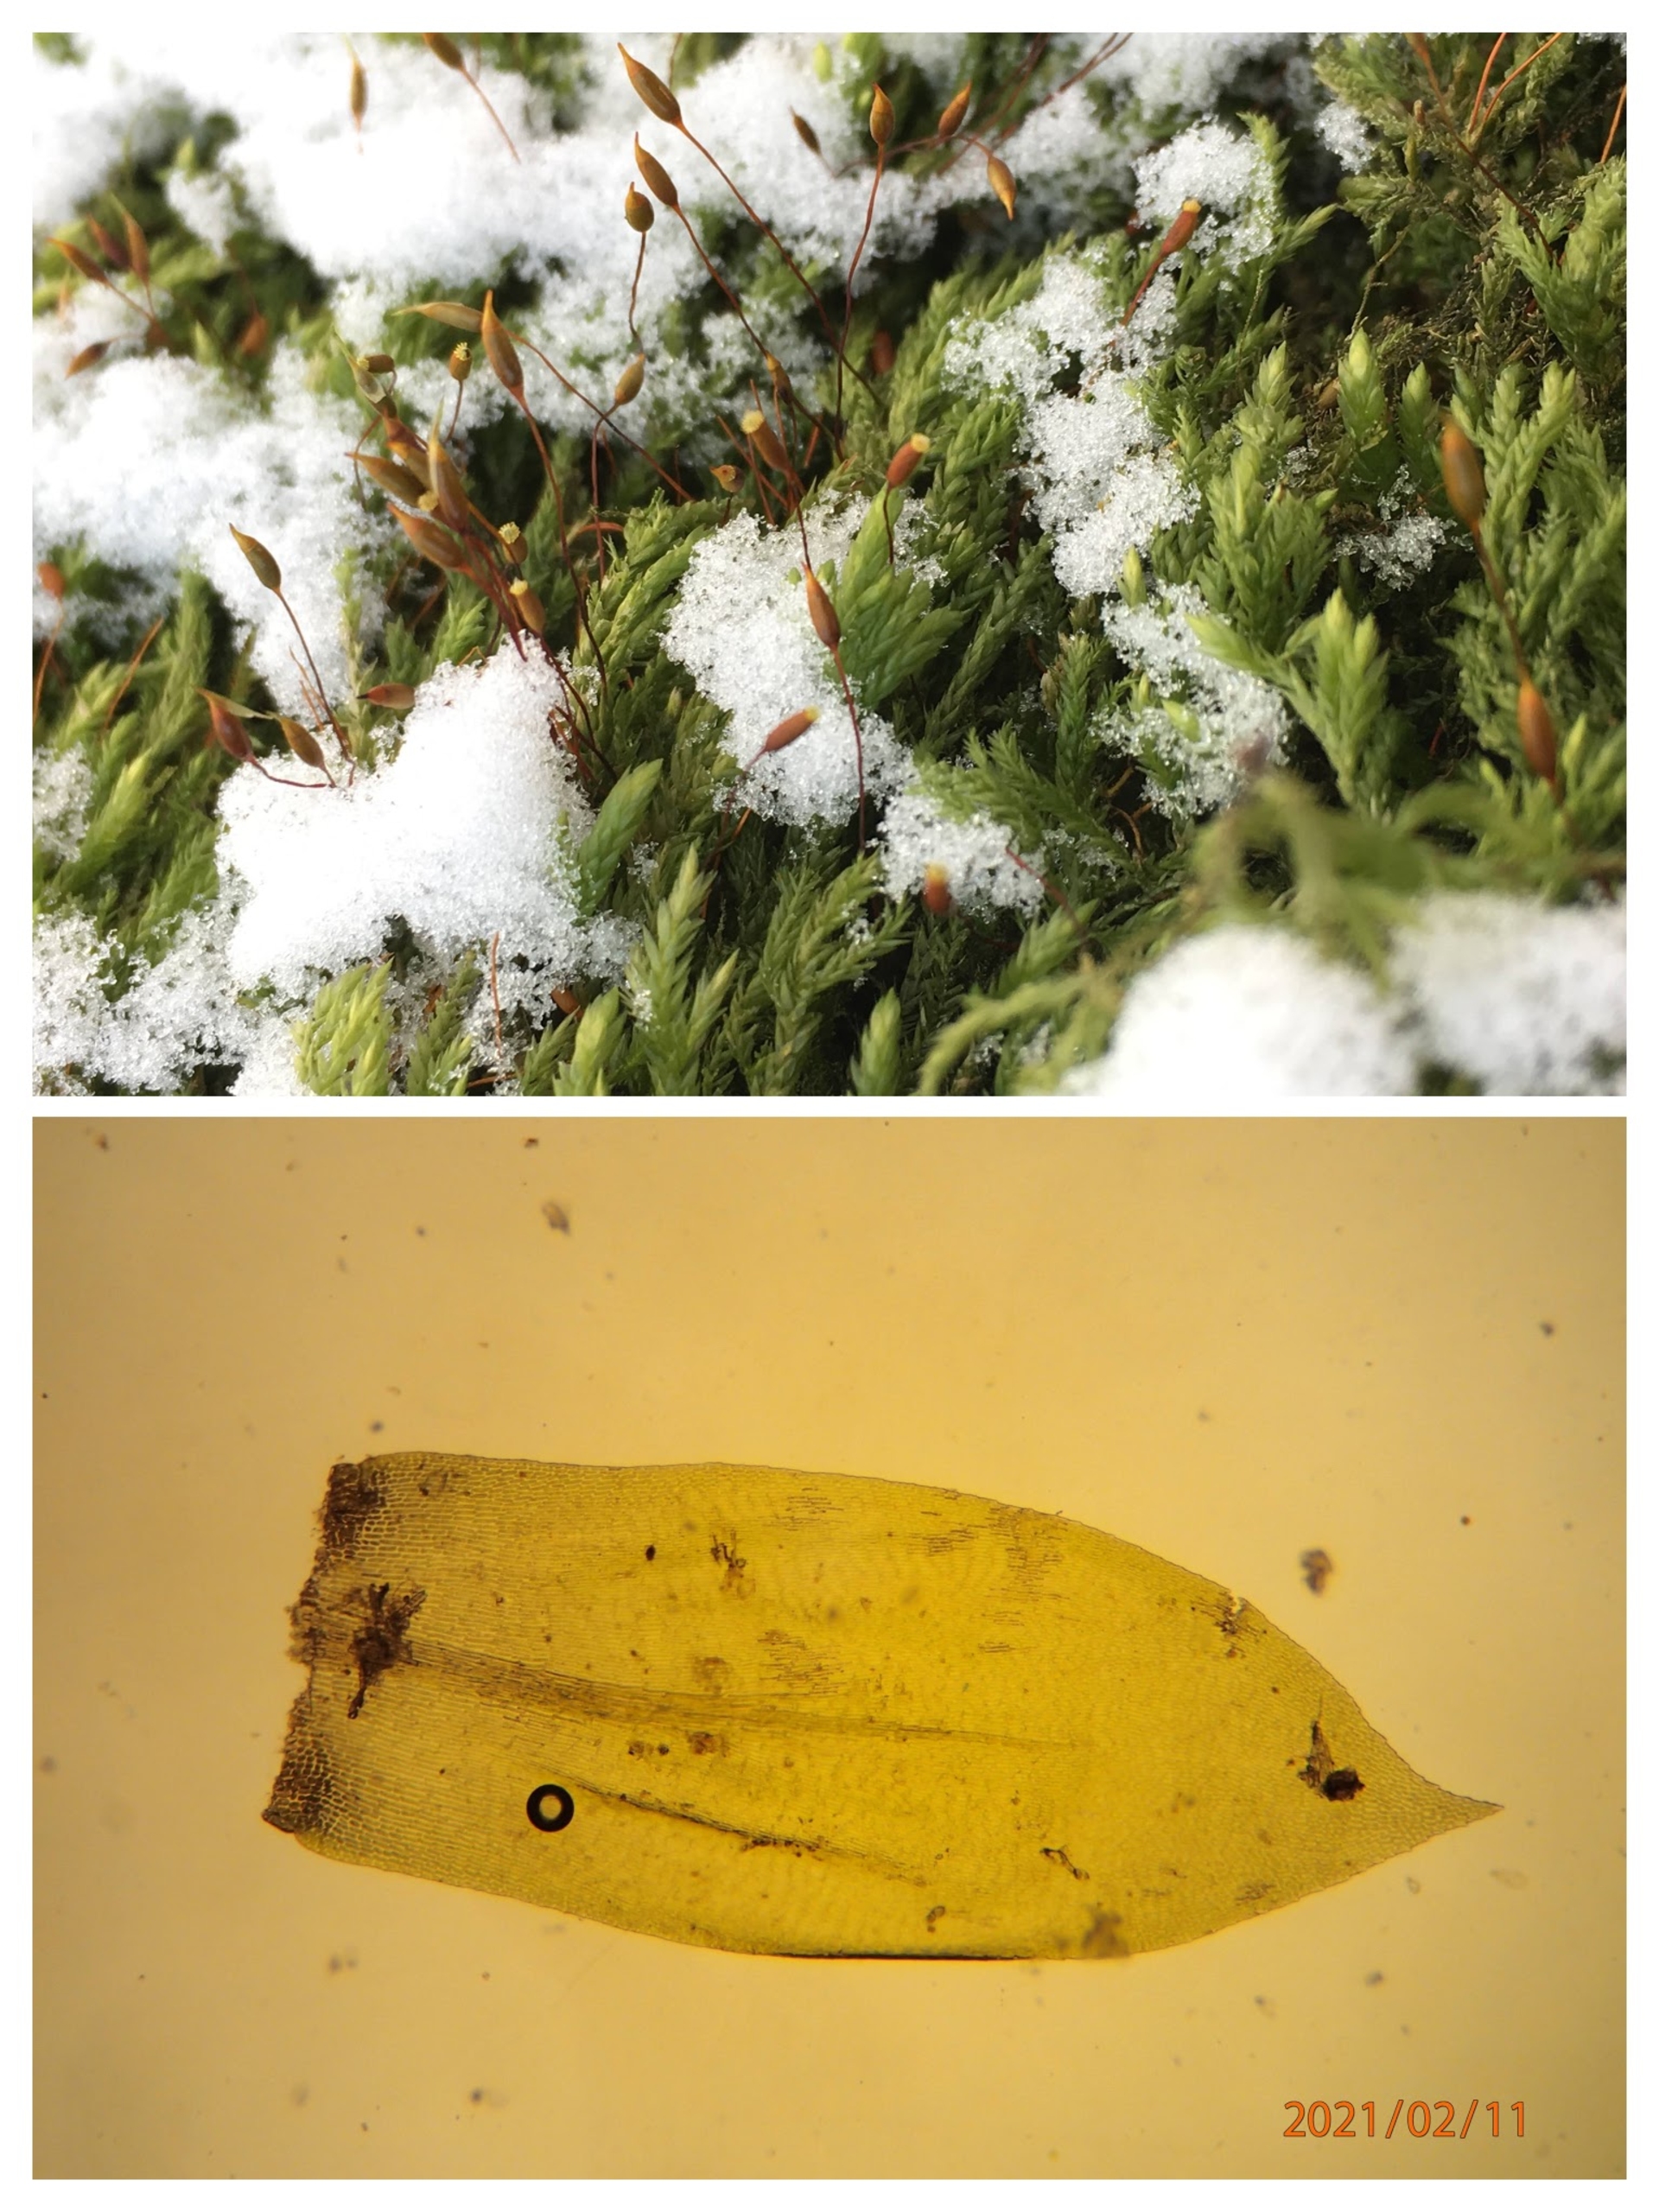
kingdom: Plantae
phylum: Bryophyta
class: Bryopsida
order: Hypnales
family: Lembophyllaceae
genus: Isothecium
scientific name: Isothecium alopecuroides
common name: Stor stammemos
